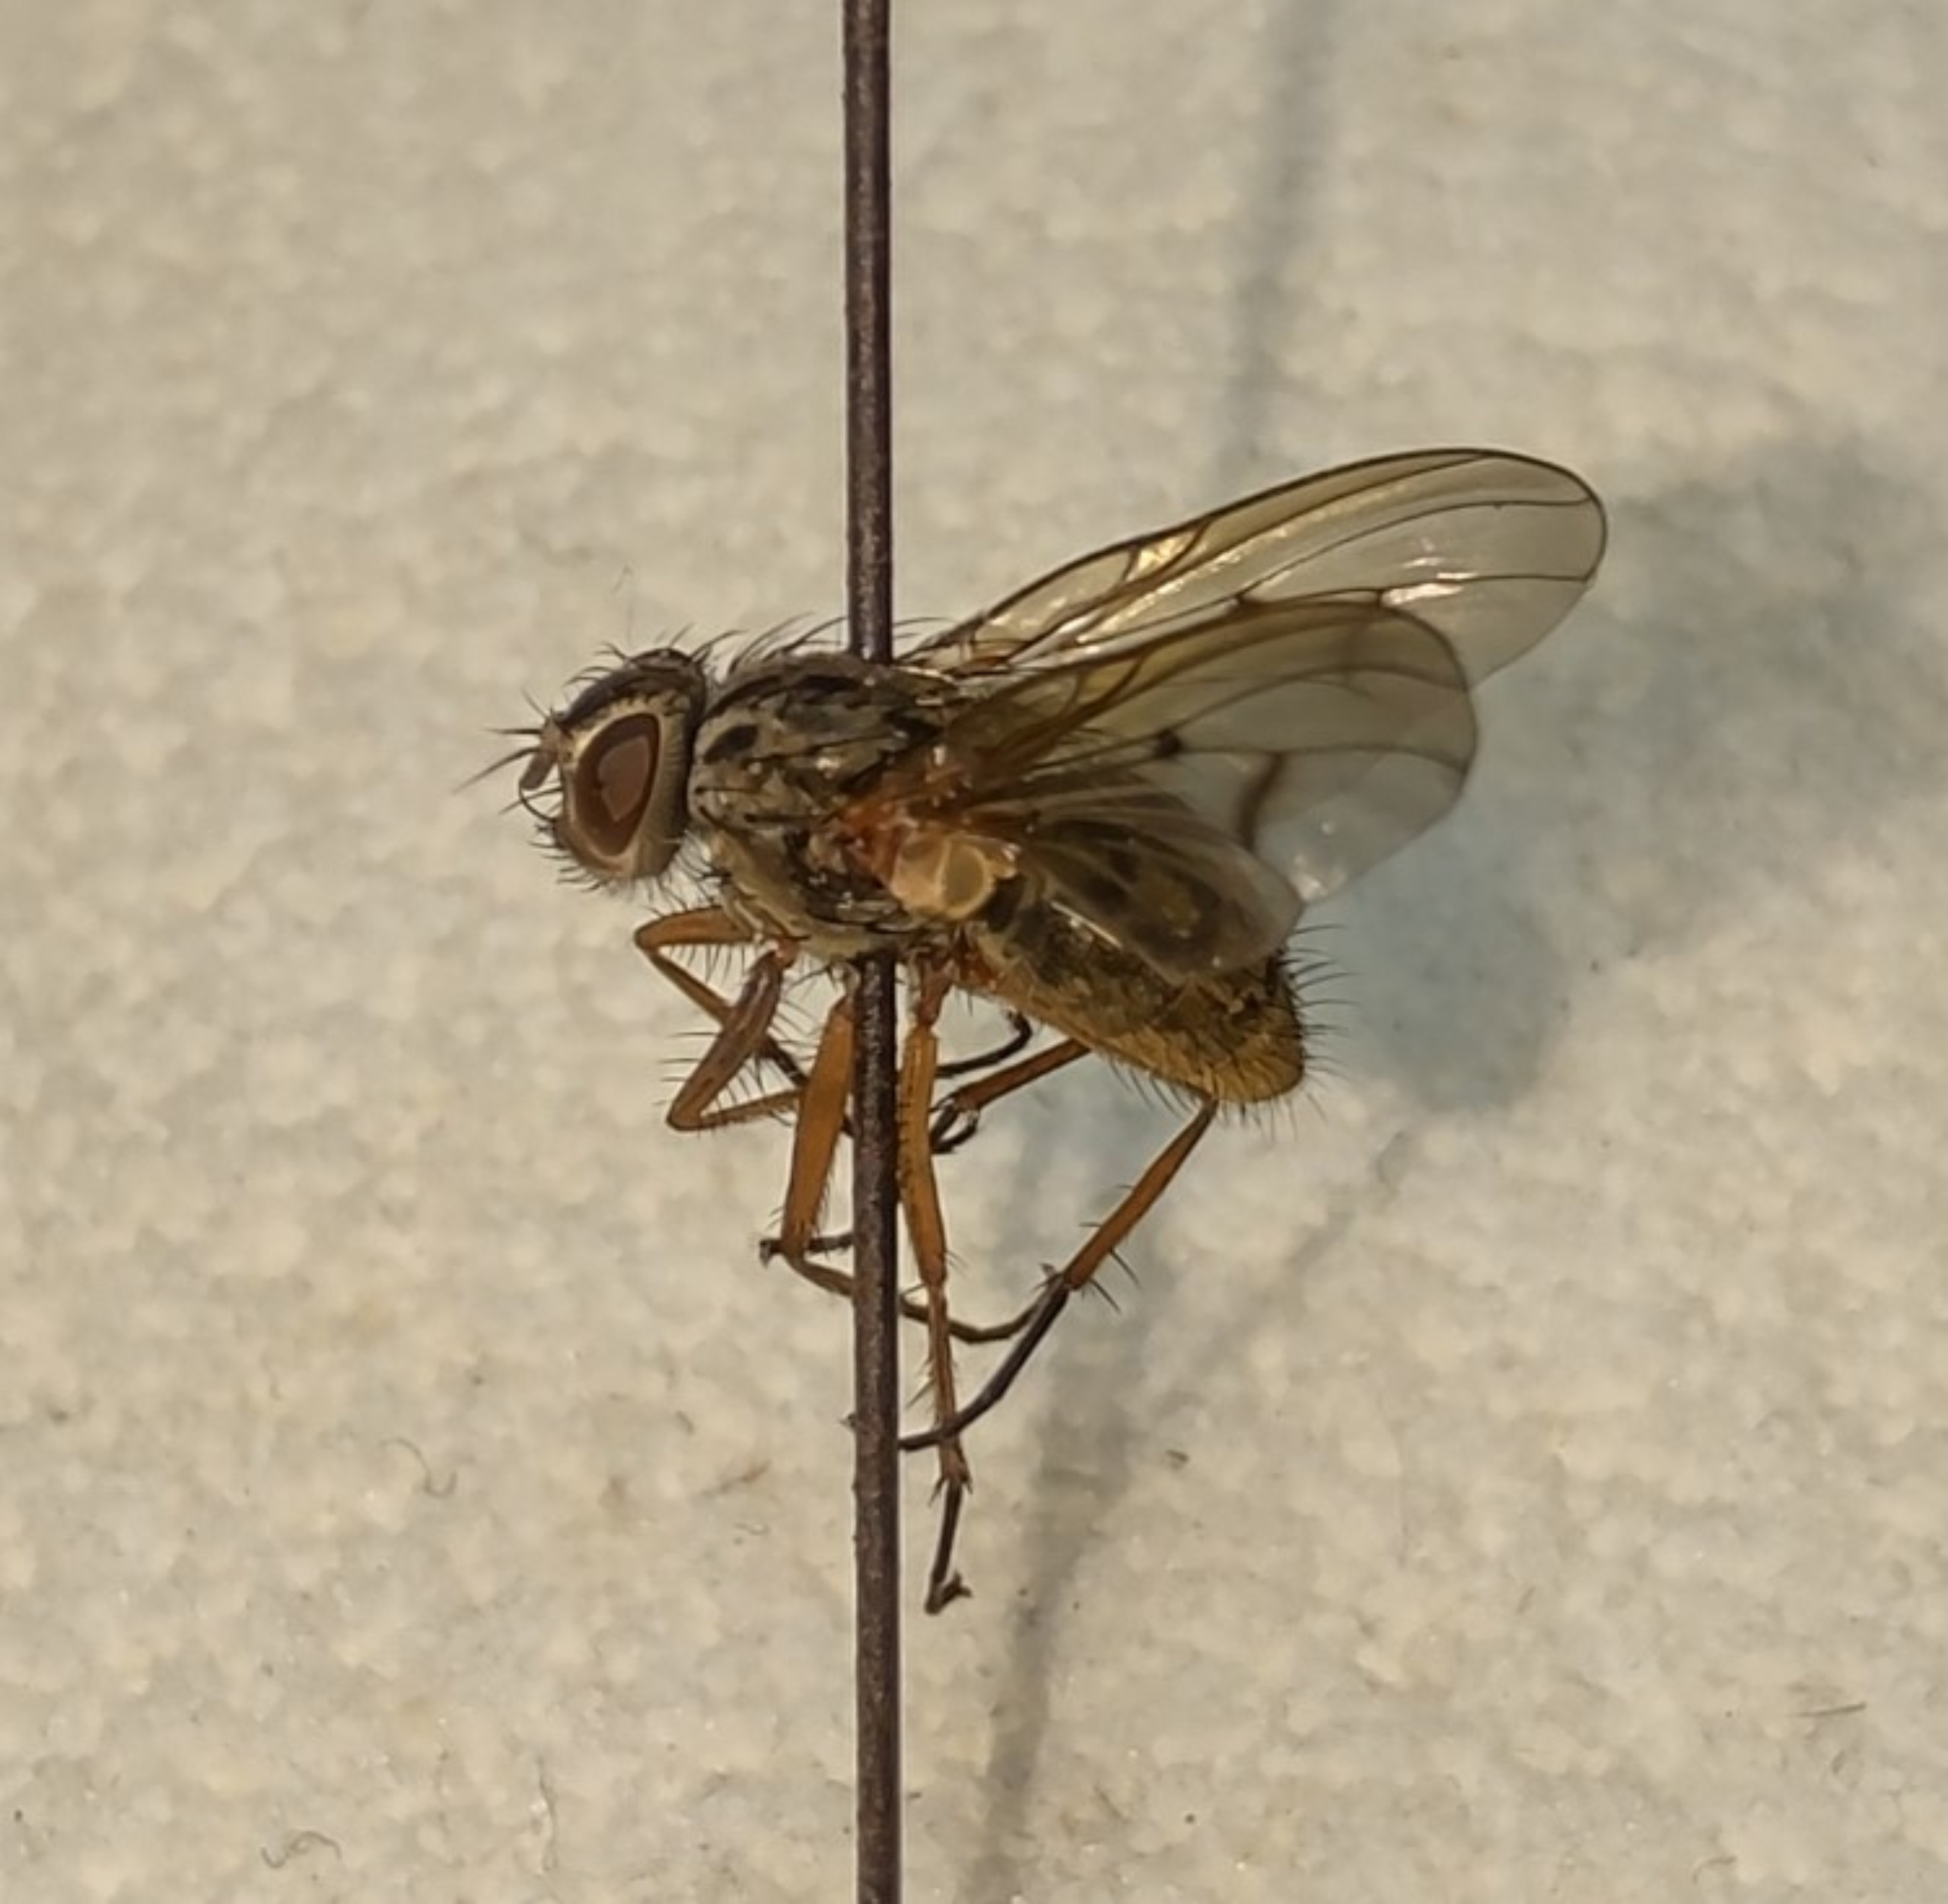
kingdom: Animalia
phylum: Arthropoda
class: Insecta
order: Diptera
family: Muscidae
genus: Phaonia
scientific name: Phaonia tuguriorum
